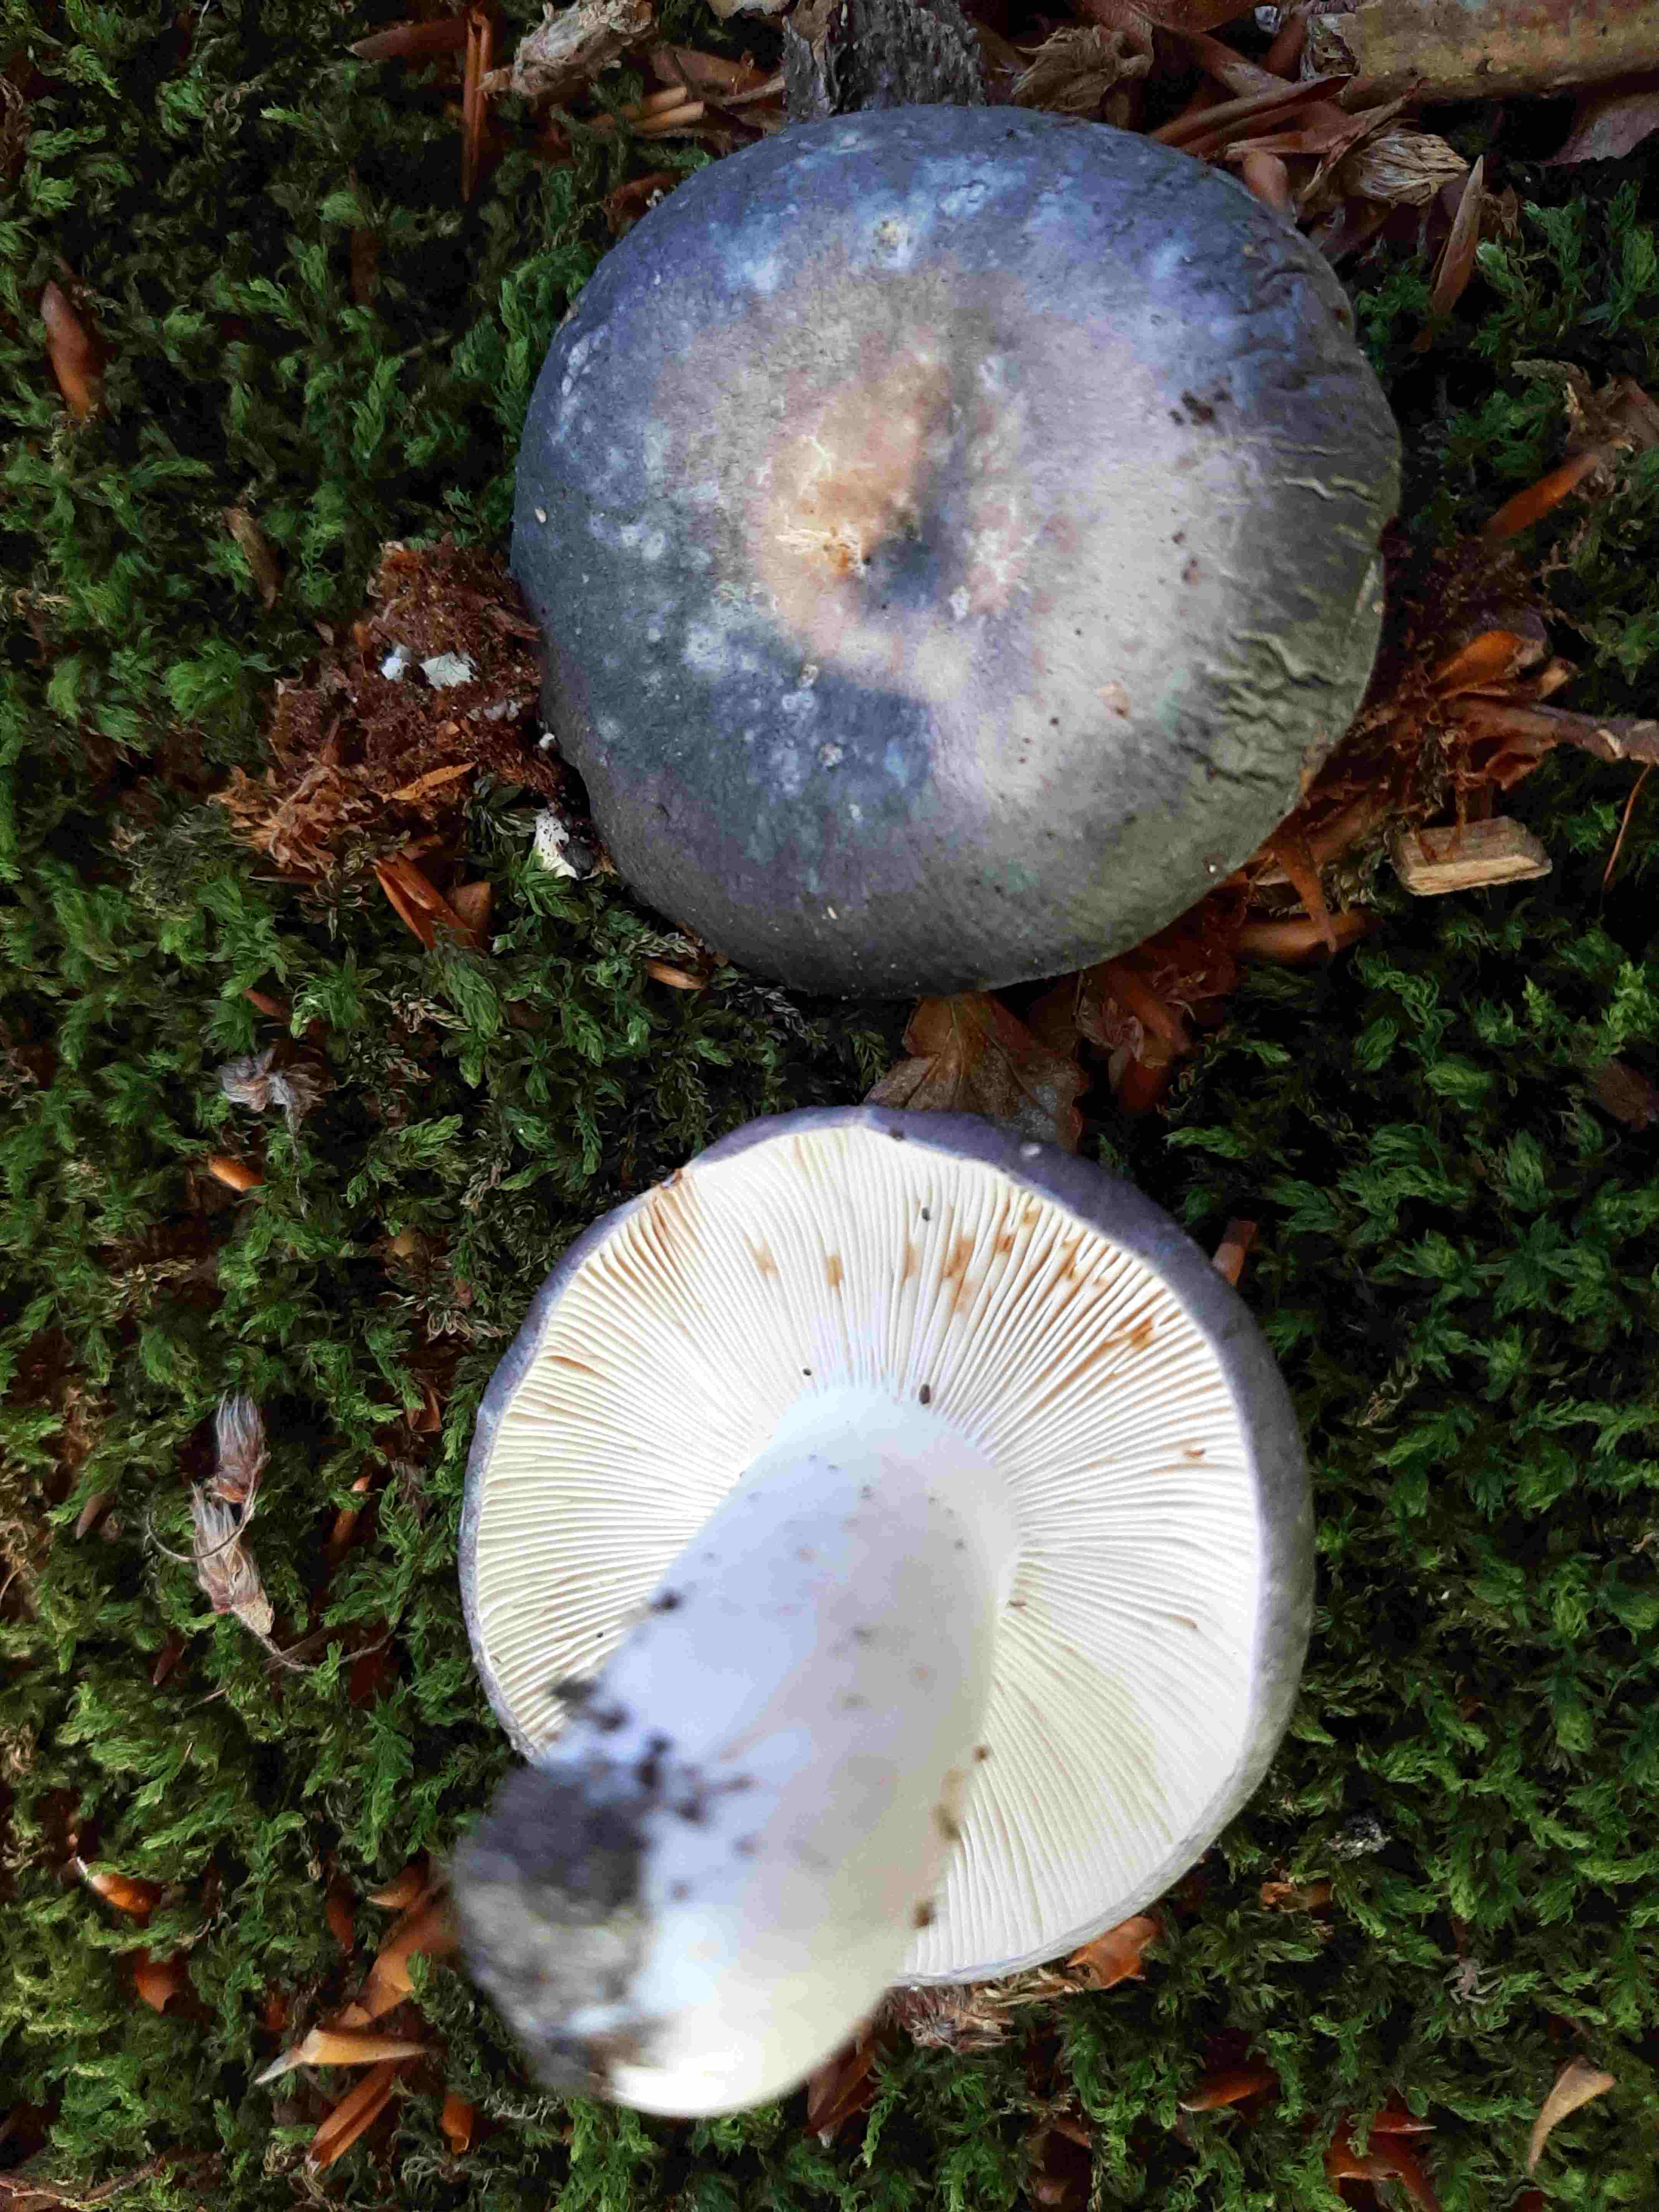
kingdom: Fungi
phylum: Basidiomycota
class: Agaricomycetes
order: Russulales
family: Russulaceae
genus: Russula
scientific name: Russula
